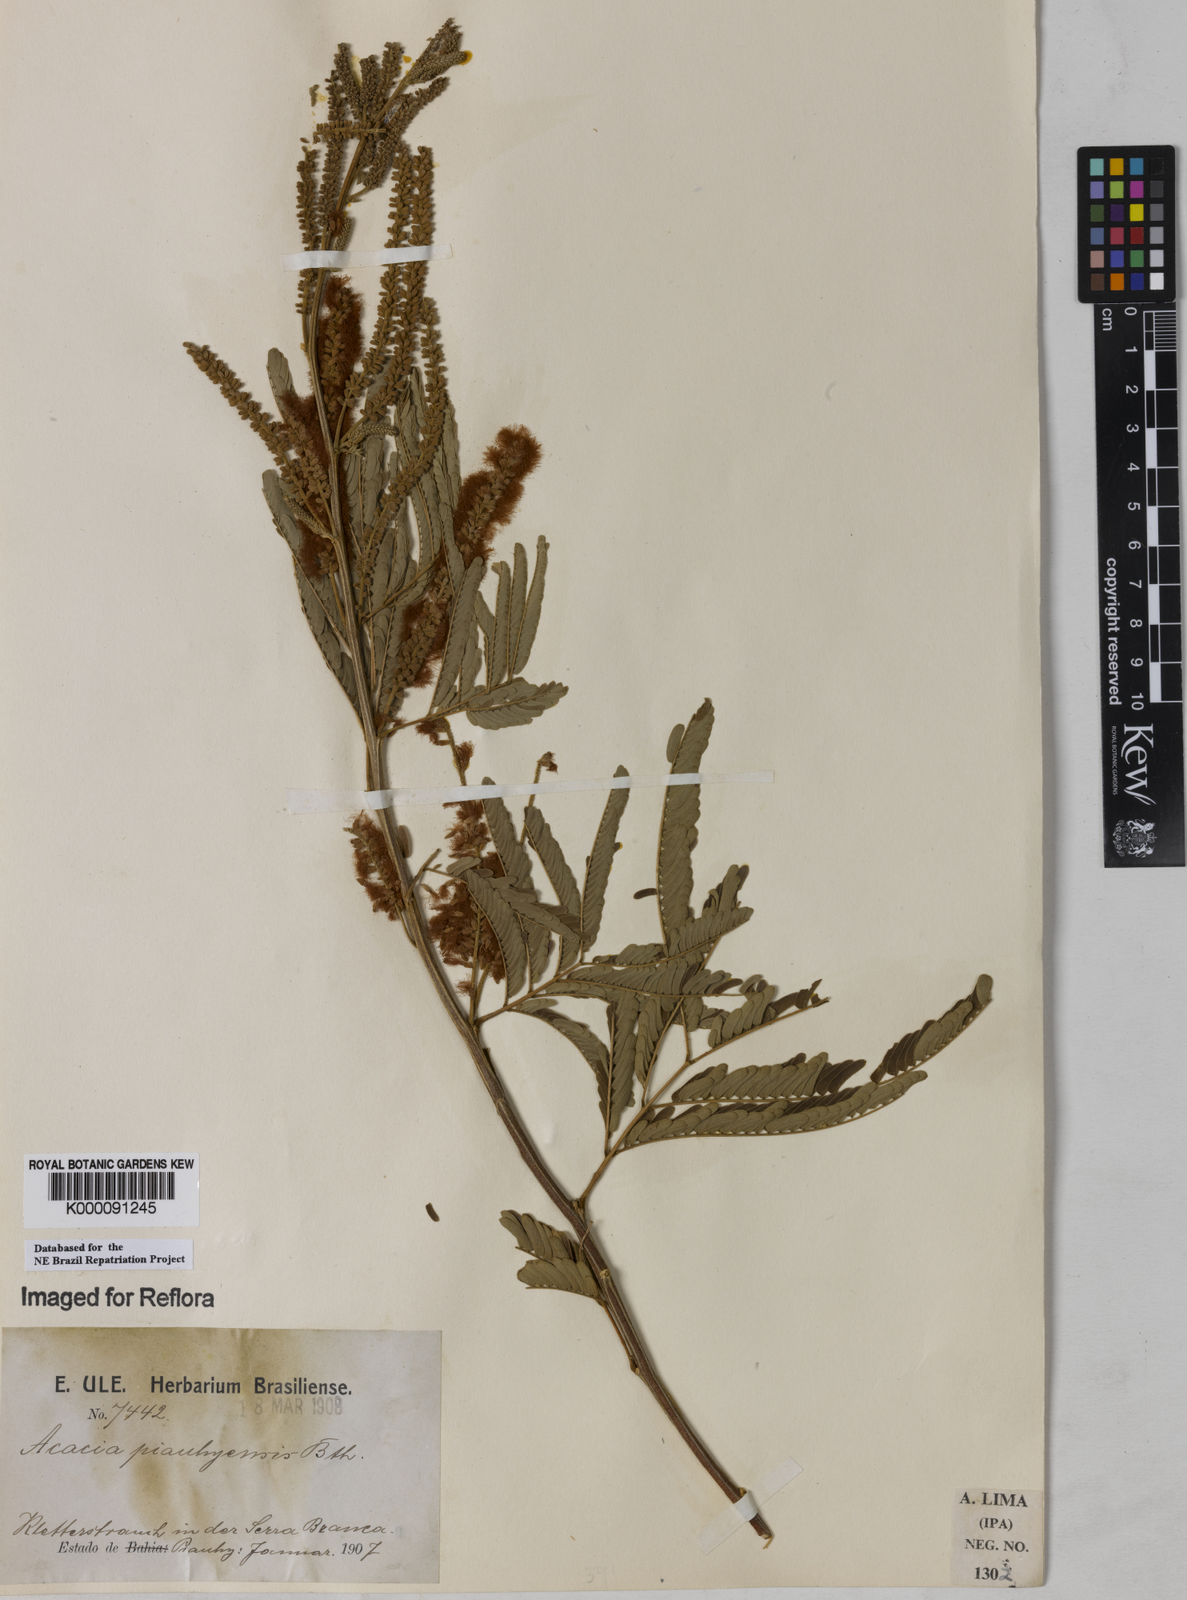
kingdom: Plantae
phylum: Tracheophyta
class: Magnoliopsida
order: Fabales
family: Fabaceae
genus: Senegalia
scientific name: Senegalia piauhiensis
